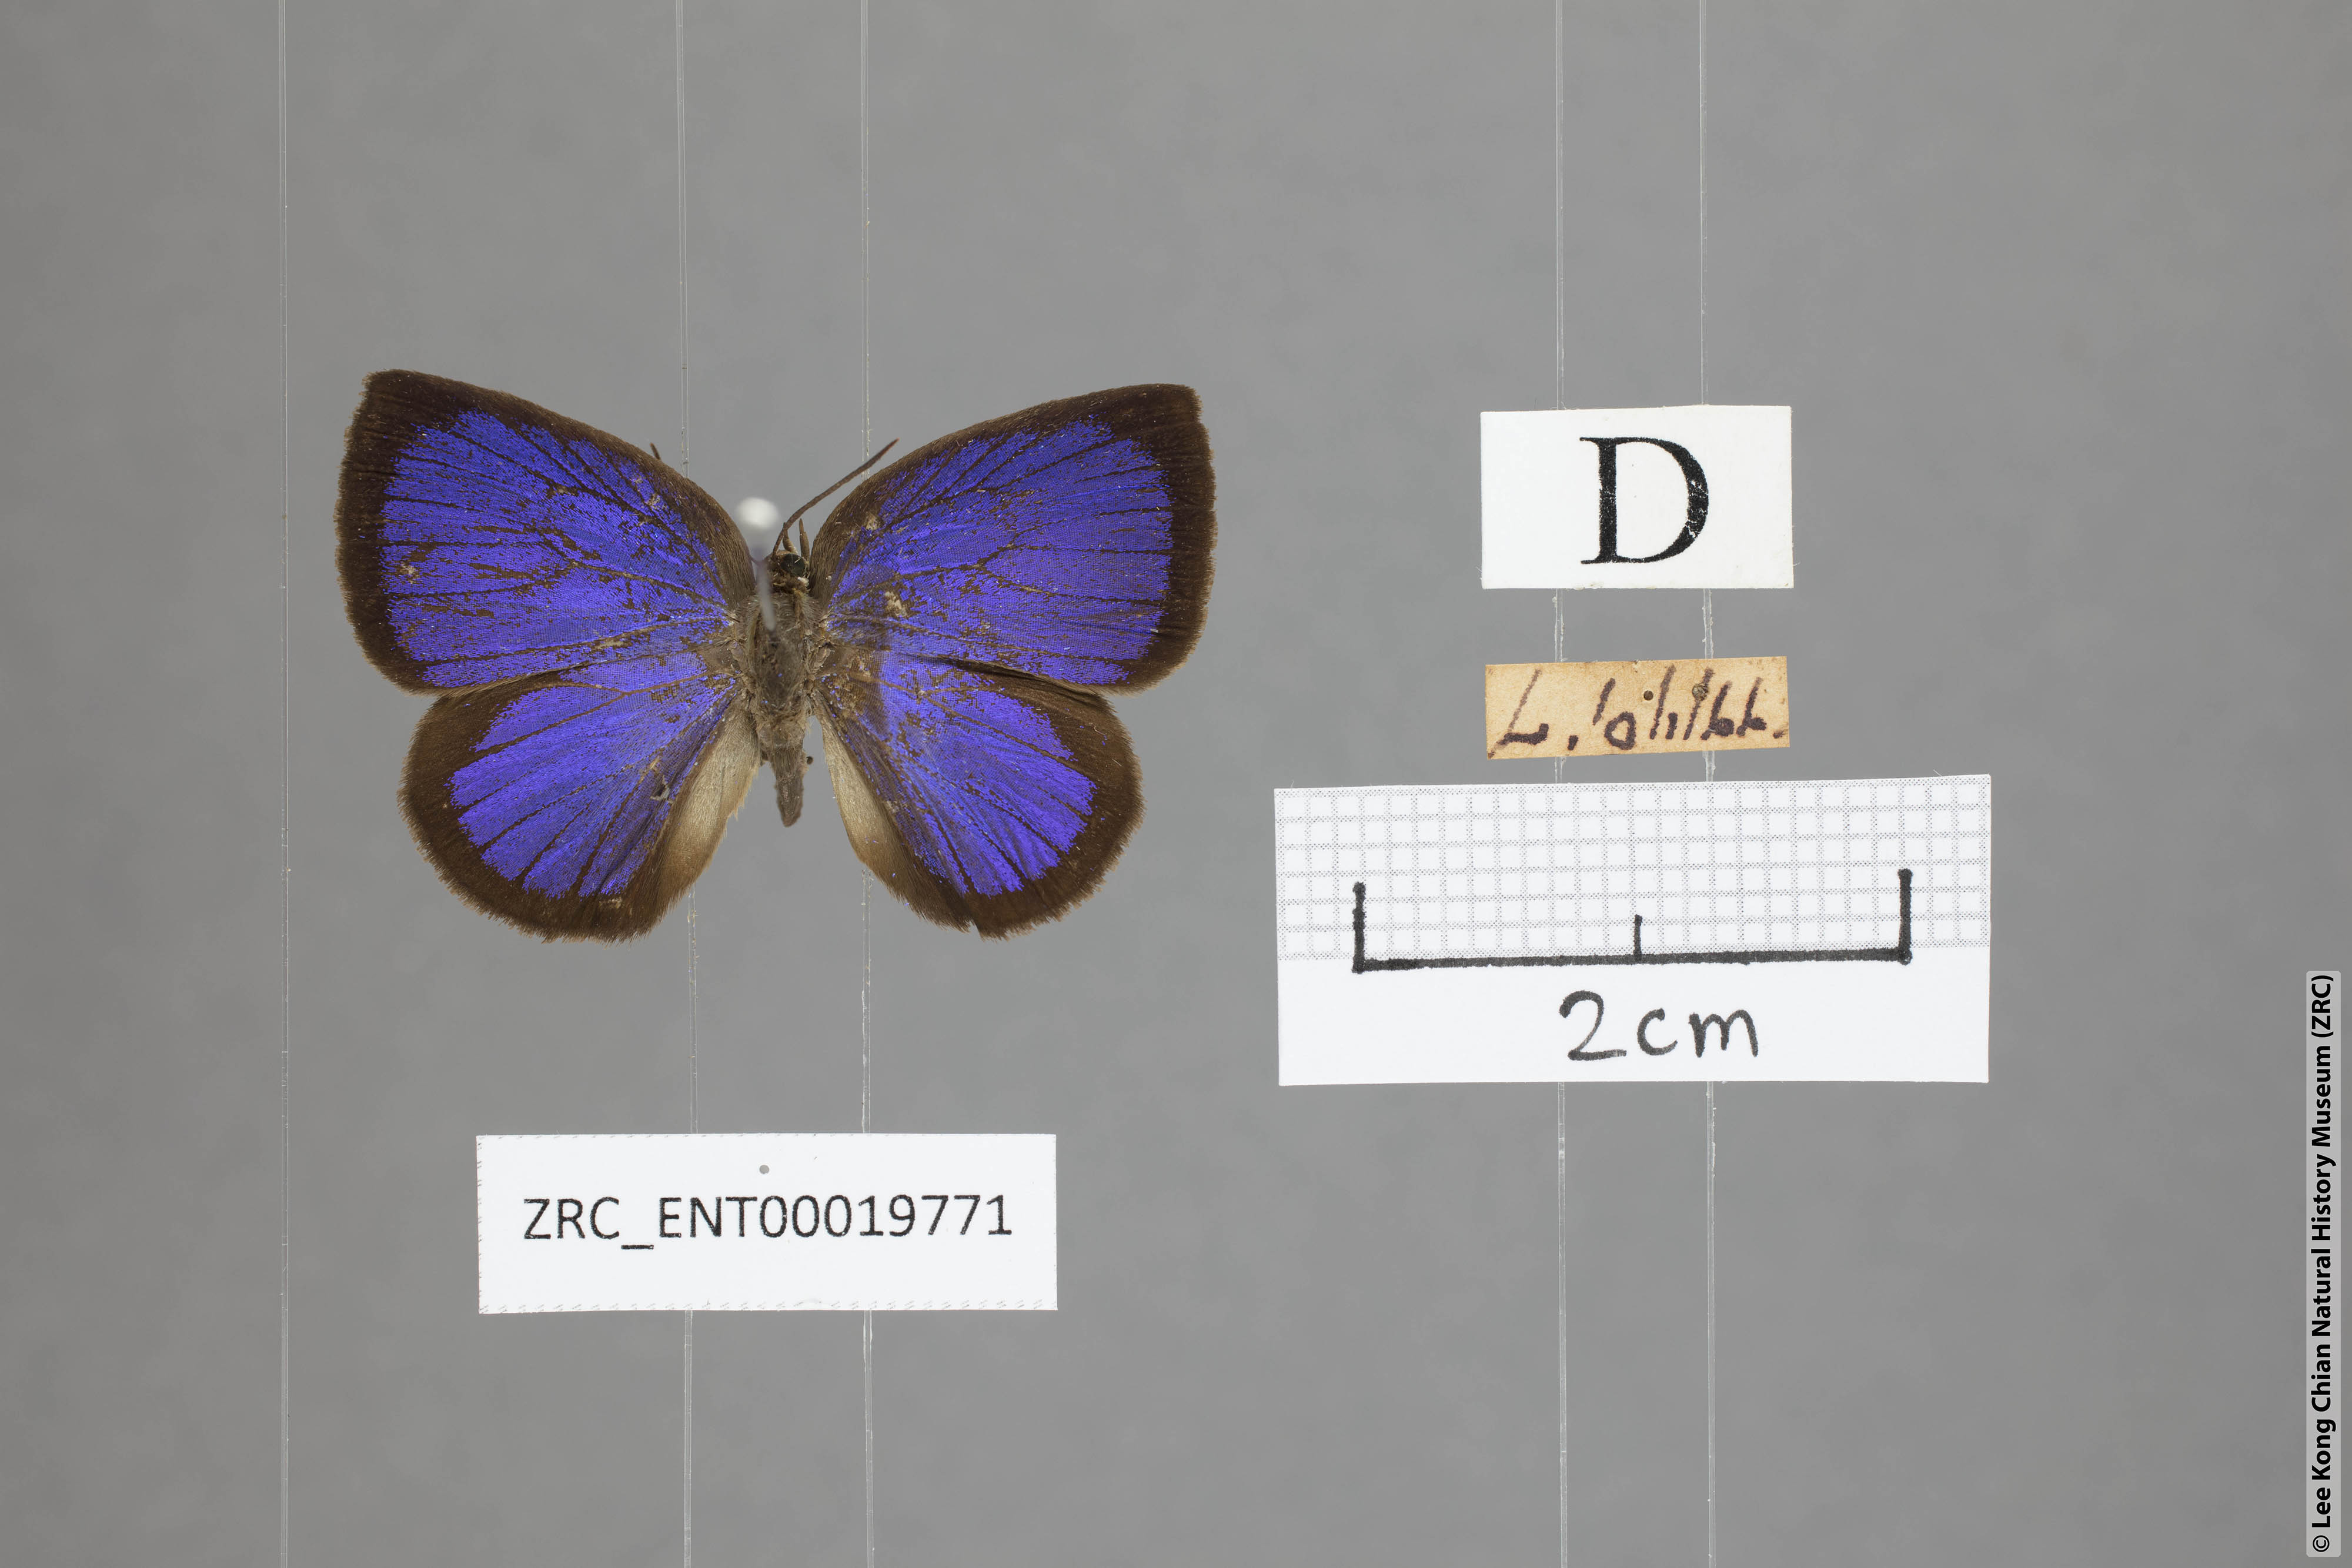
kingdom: Animalia
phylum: Arthropoda
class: Insecta
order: Lepidoptera
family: Lycaenidae
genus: Arhopala
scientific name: Arhopala perimuta
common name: Yellowdisc oakblue
